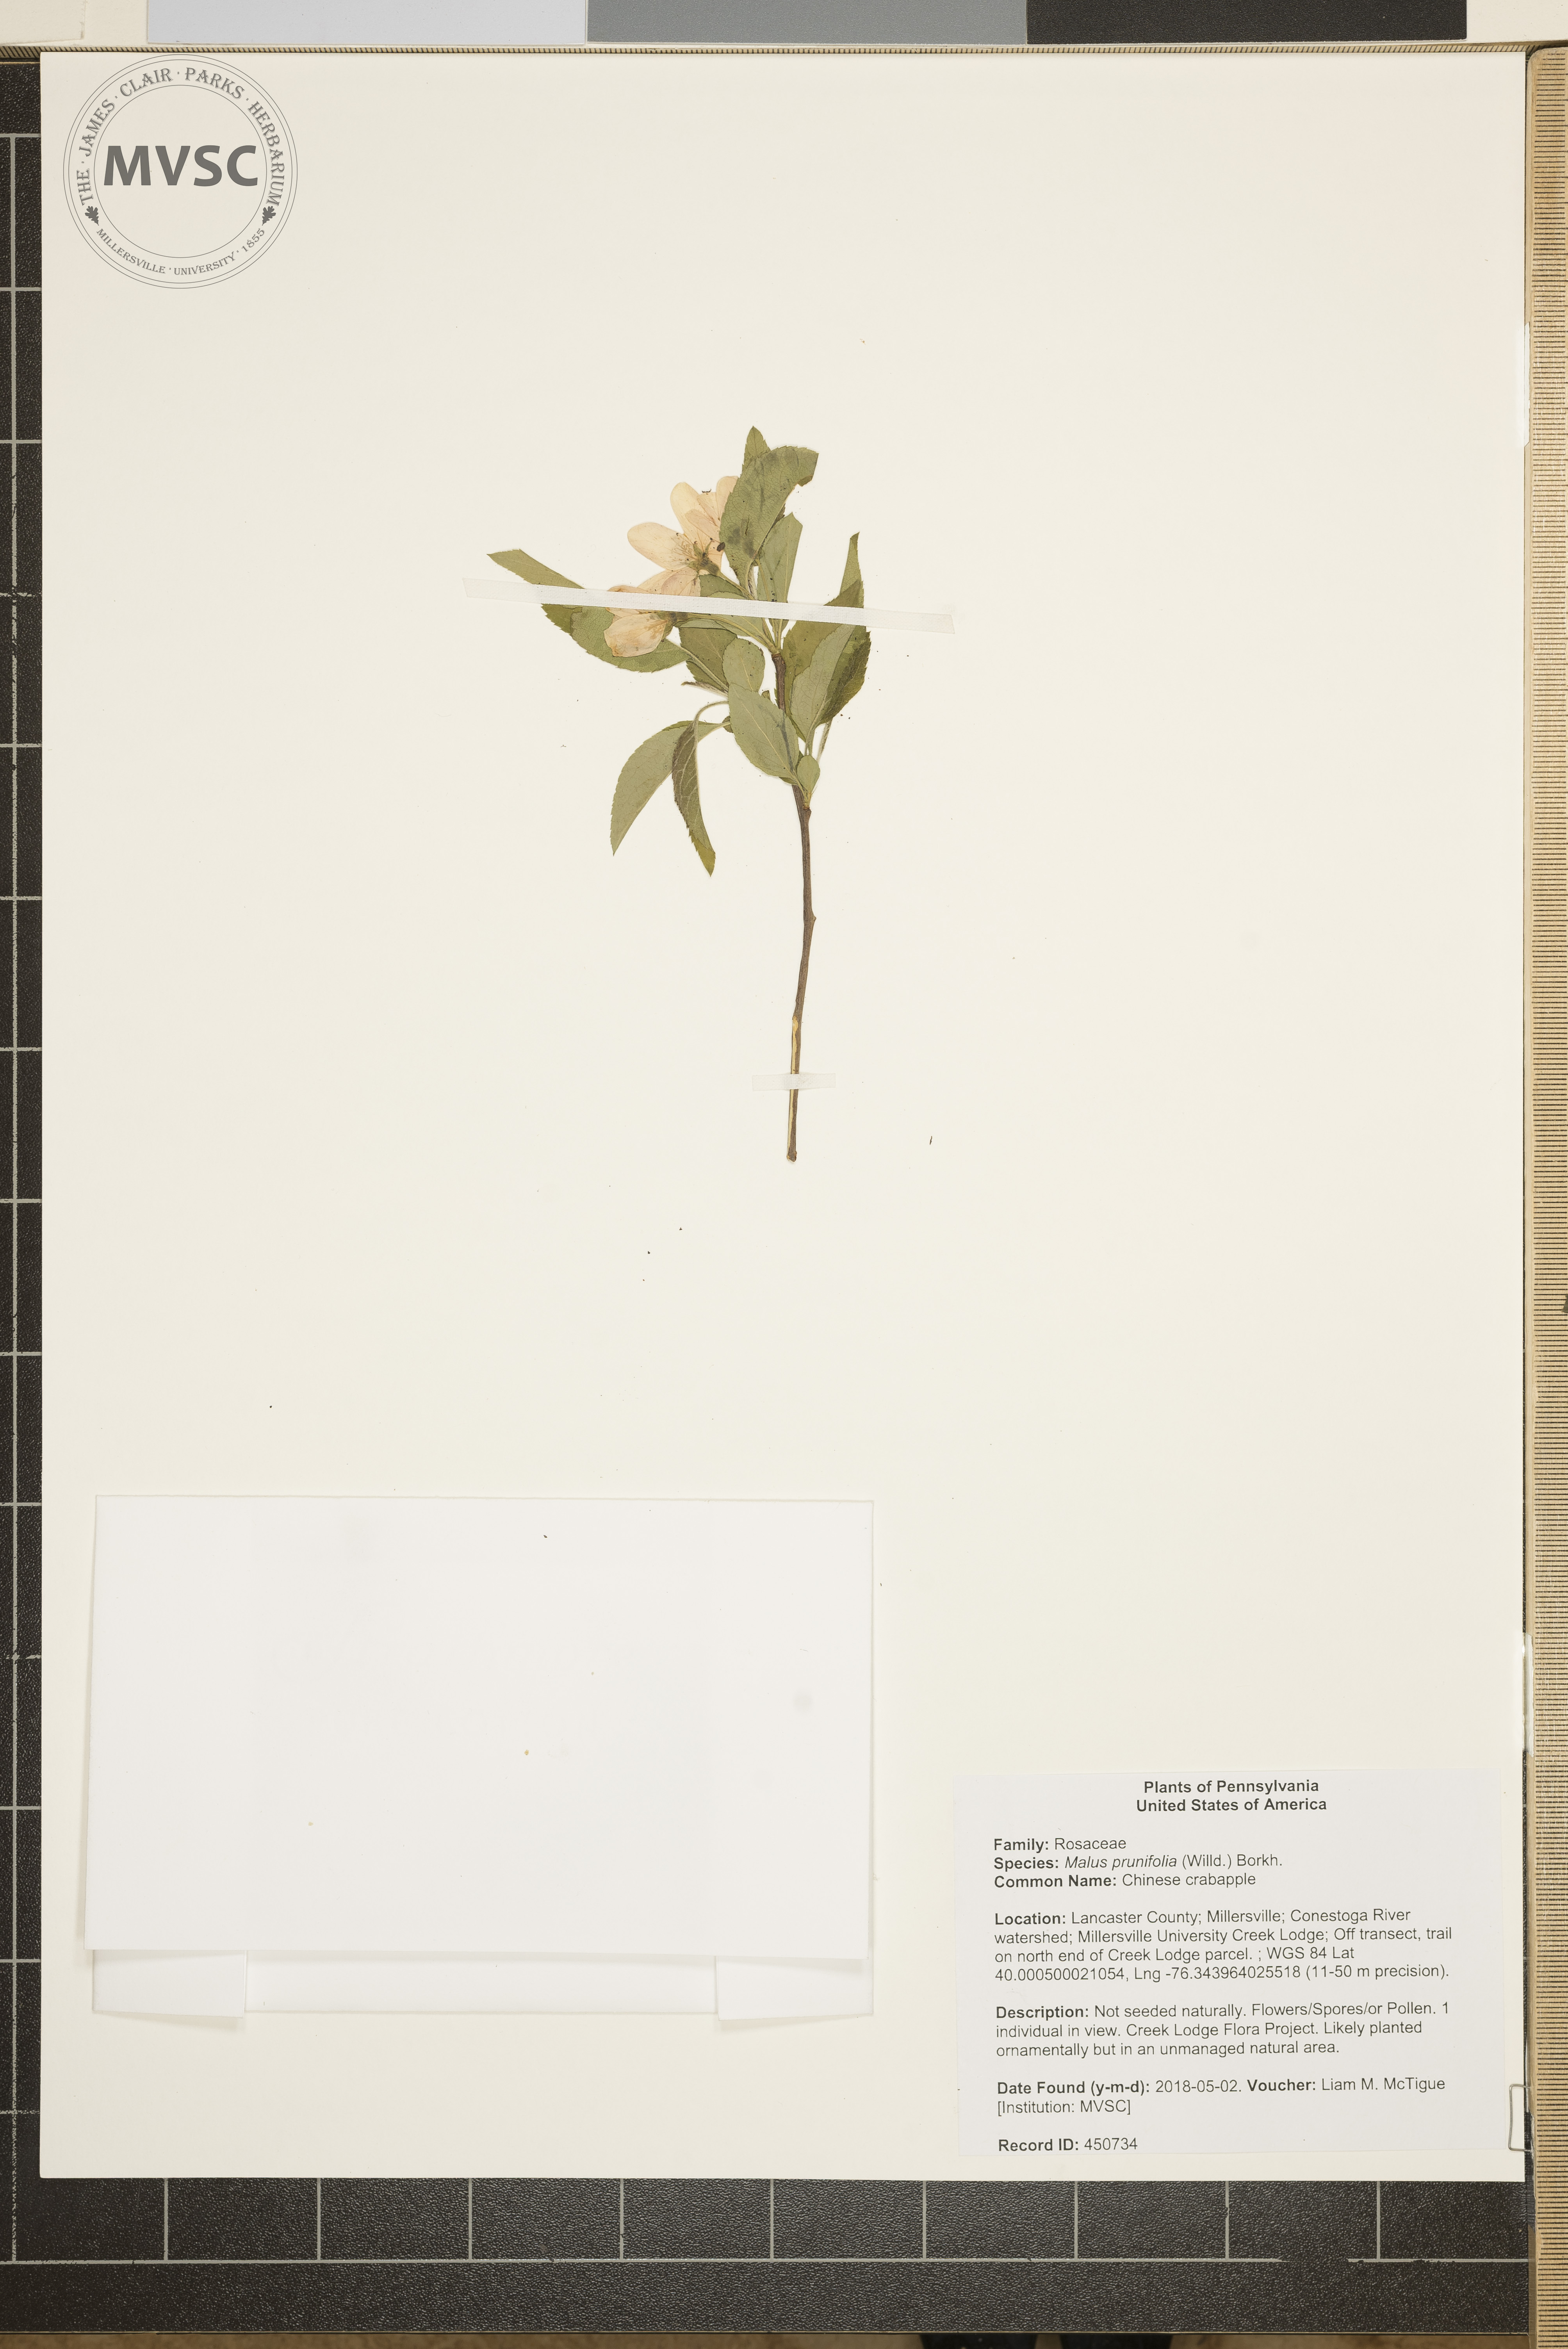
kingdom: Plantae
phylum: Tracheophyta
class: Magnoliopsida
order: Rosales
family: Rosaceae
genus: Malus
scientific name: Malus prunifolia
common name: Chinese crabapple
